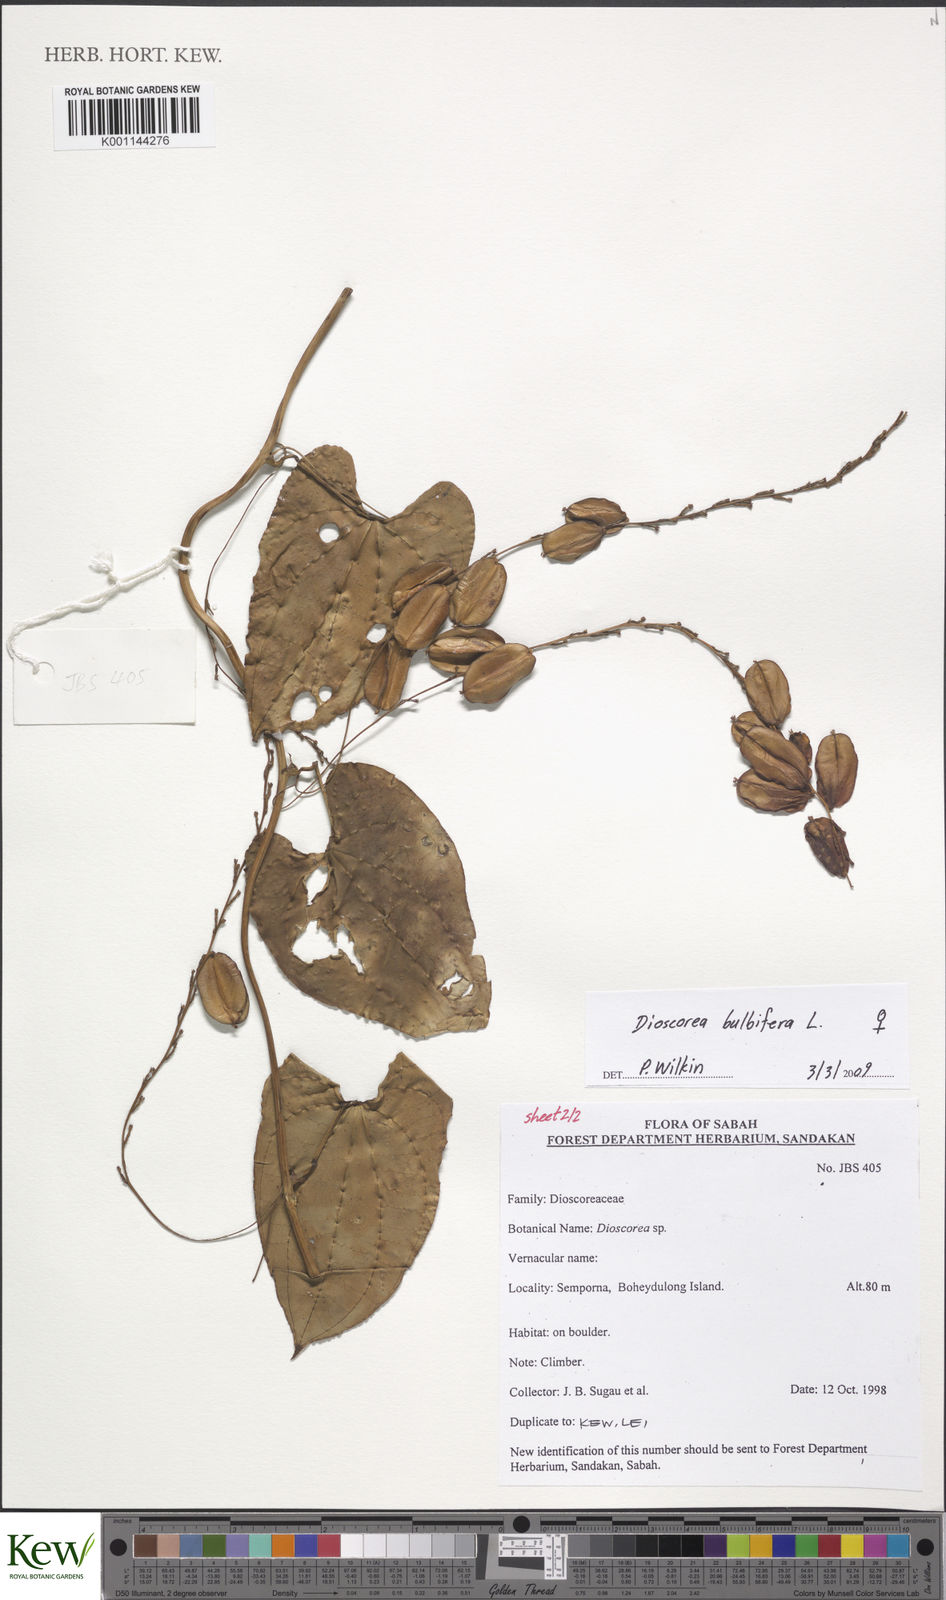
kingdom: Plantae
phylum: Tracheophyta
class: Liliopsida
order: Dioscoreales
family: Dioscoreaceae
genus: Dioscorea
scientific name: Dioscorea bulbifera
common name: Air yam
